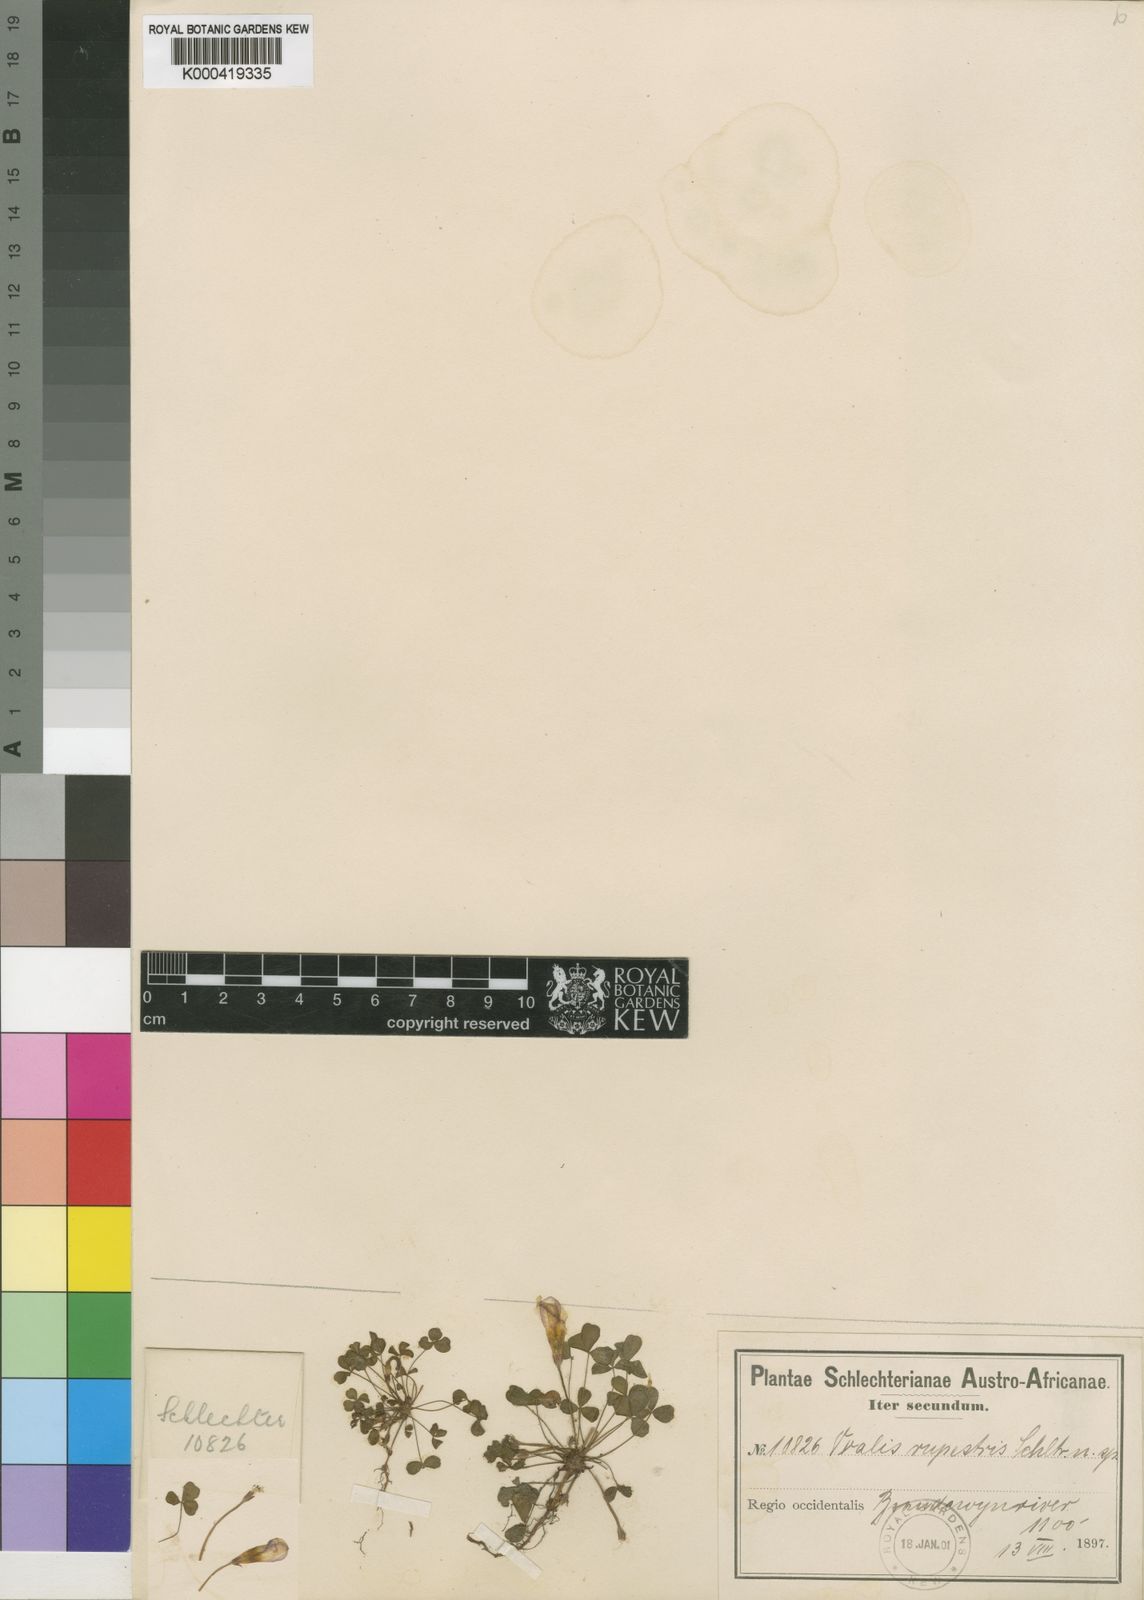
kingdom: Plantae
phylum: Tracheophyta
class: Magnoliopsida
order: Oxalidales
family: Oxalidaceae
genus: Oxalis
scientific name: Oxalis tenella
